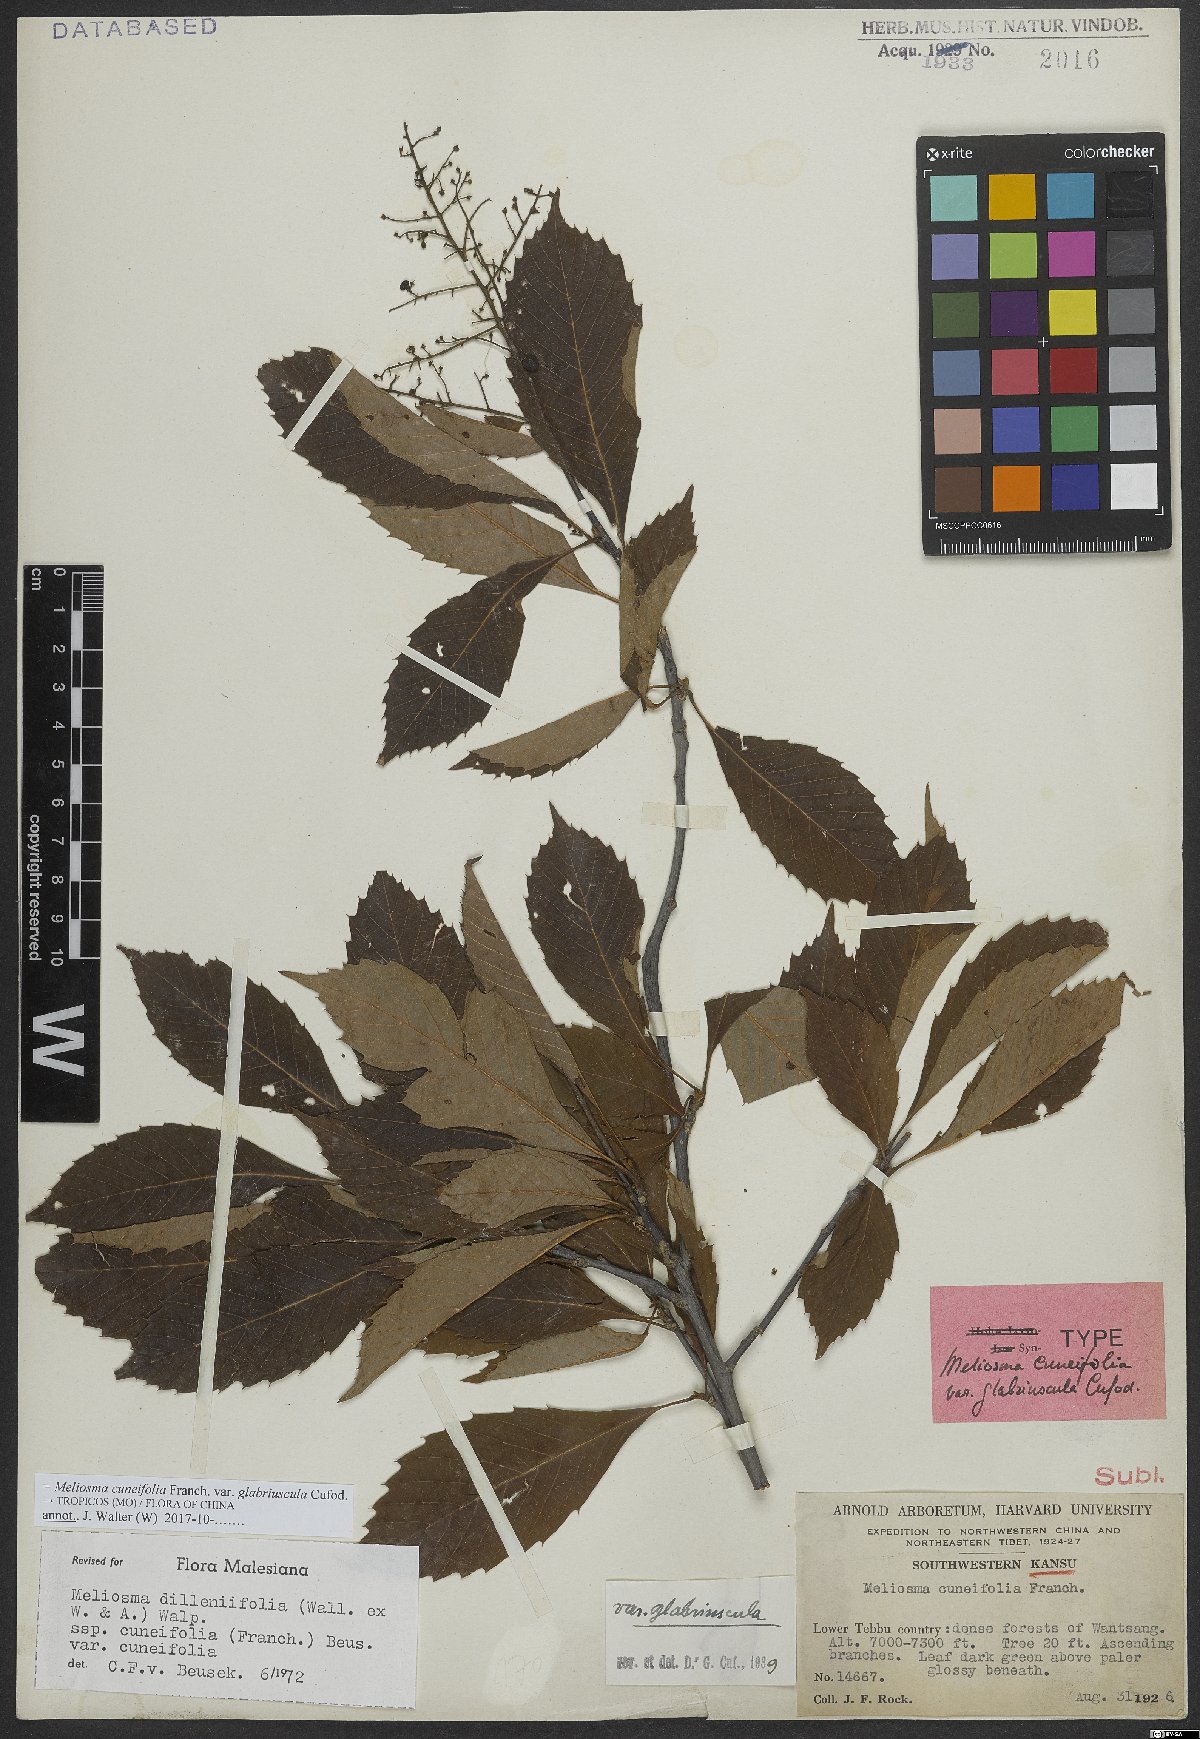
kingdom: Plantae
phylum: Tracheophyta
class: Magnoliopsida
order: Proteales
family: Sabiaceae
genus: Meliosma
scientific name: Meliosma cuneifolia
